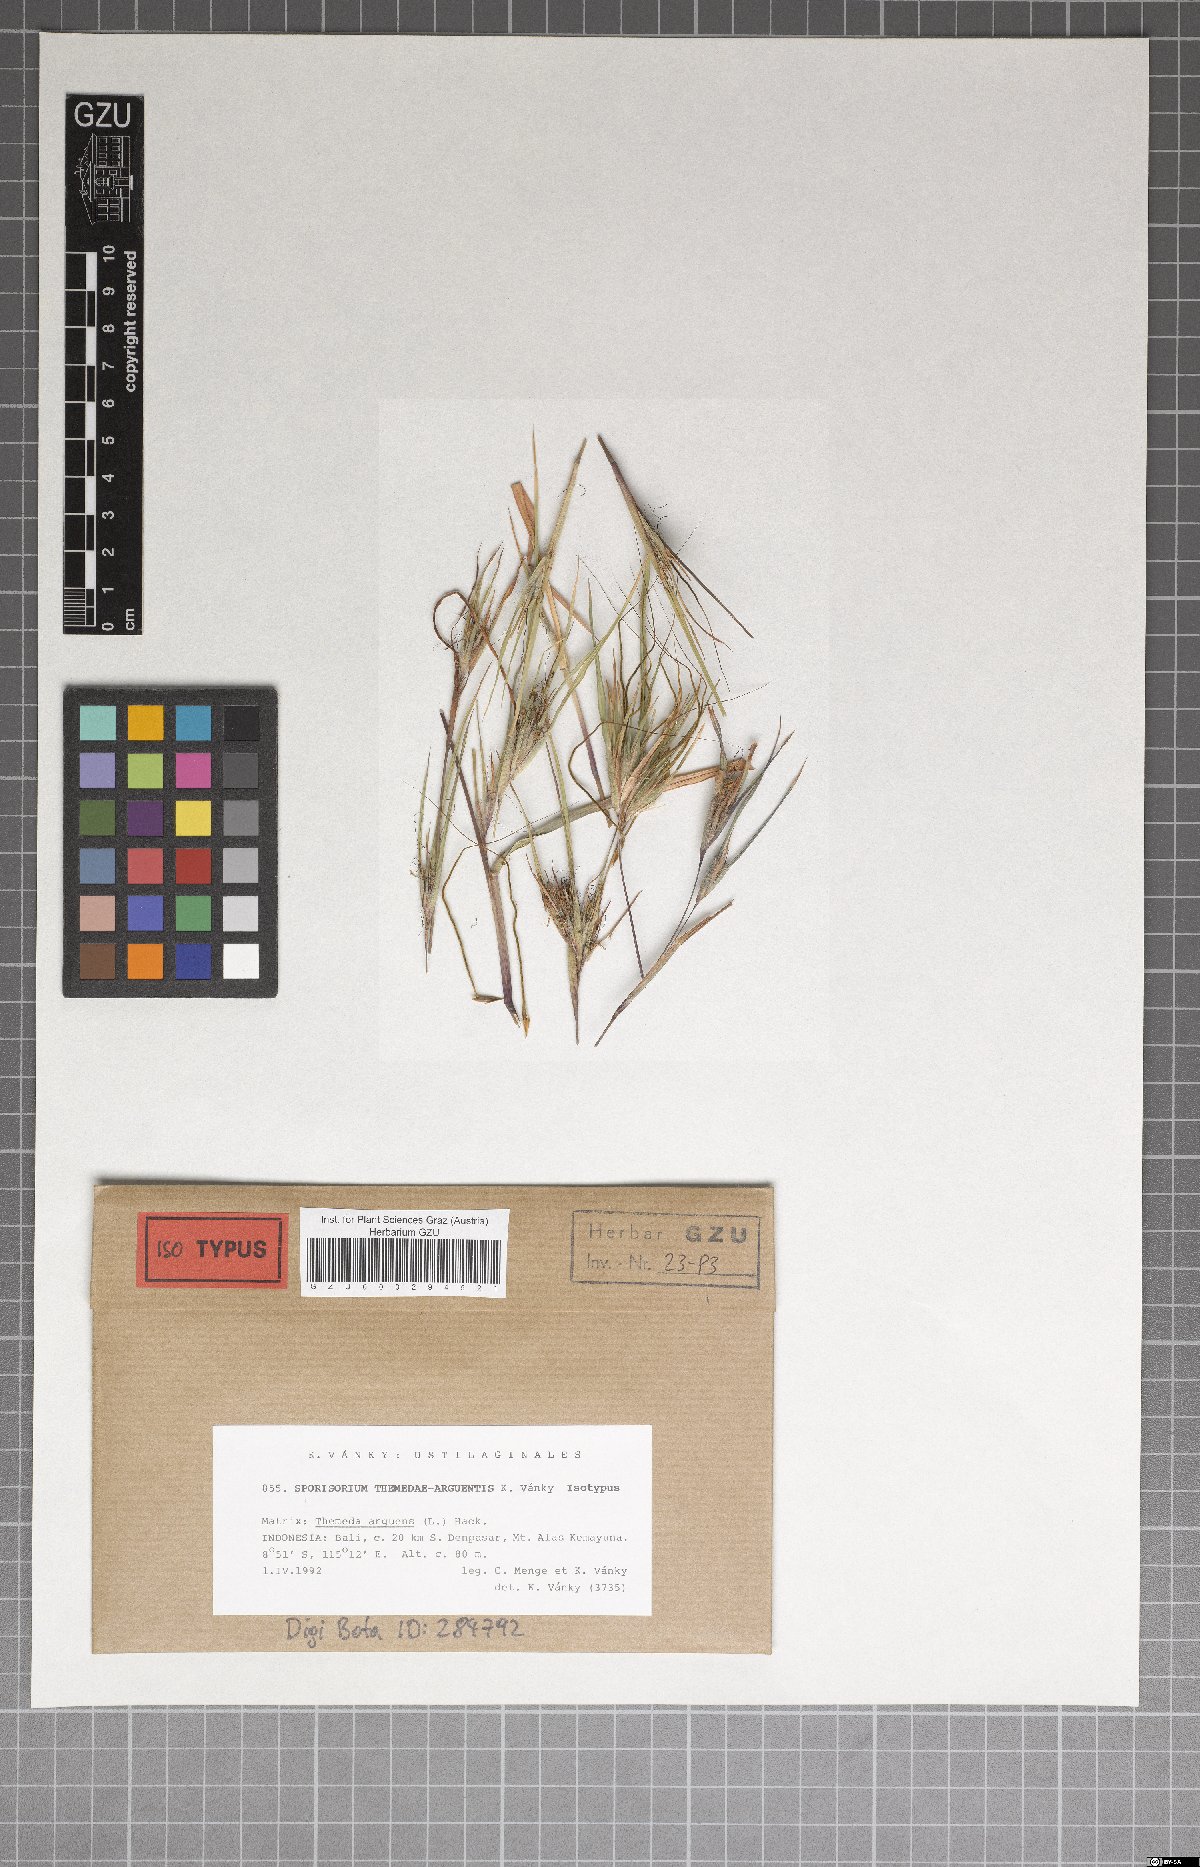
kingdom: Fungi
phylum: Basidiomycota
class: Ustilaginomycetes
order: Ustilaginales
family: Ustilaginaceae
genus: Anthracocystis
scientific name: Anthracocystis themedae-arguentis
